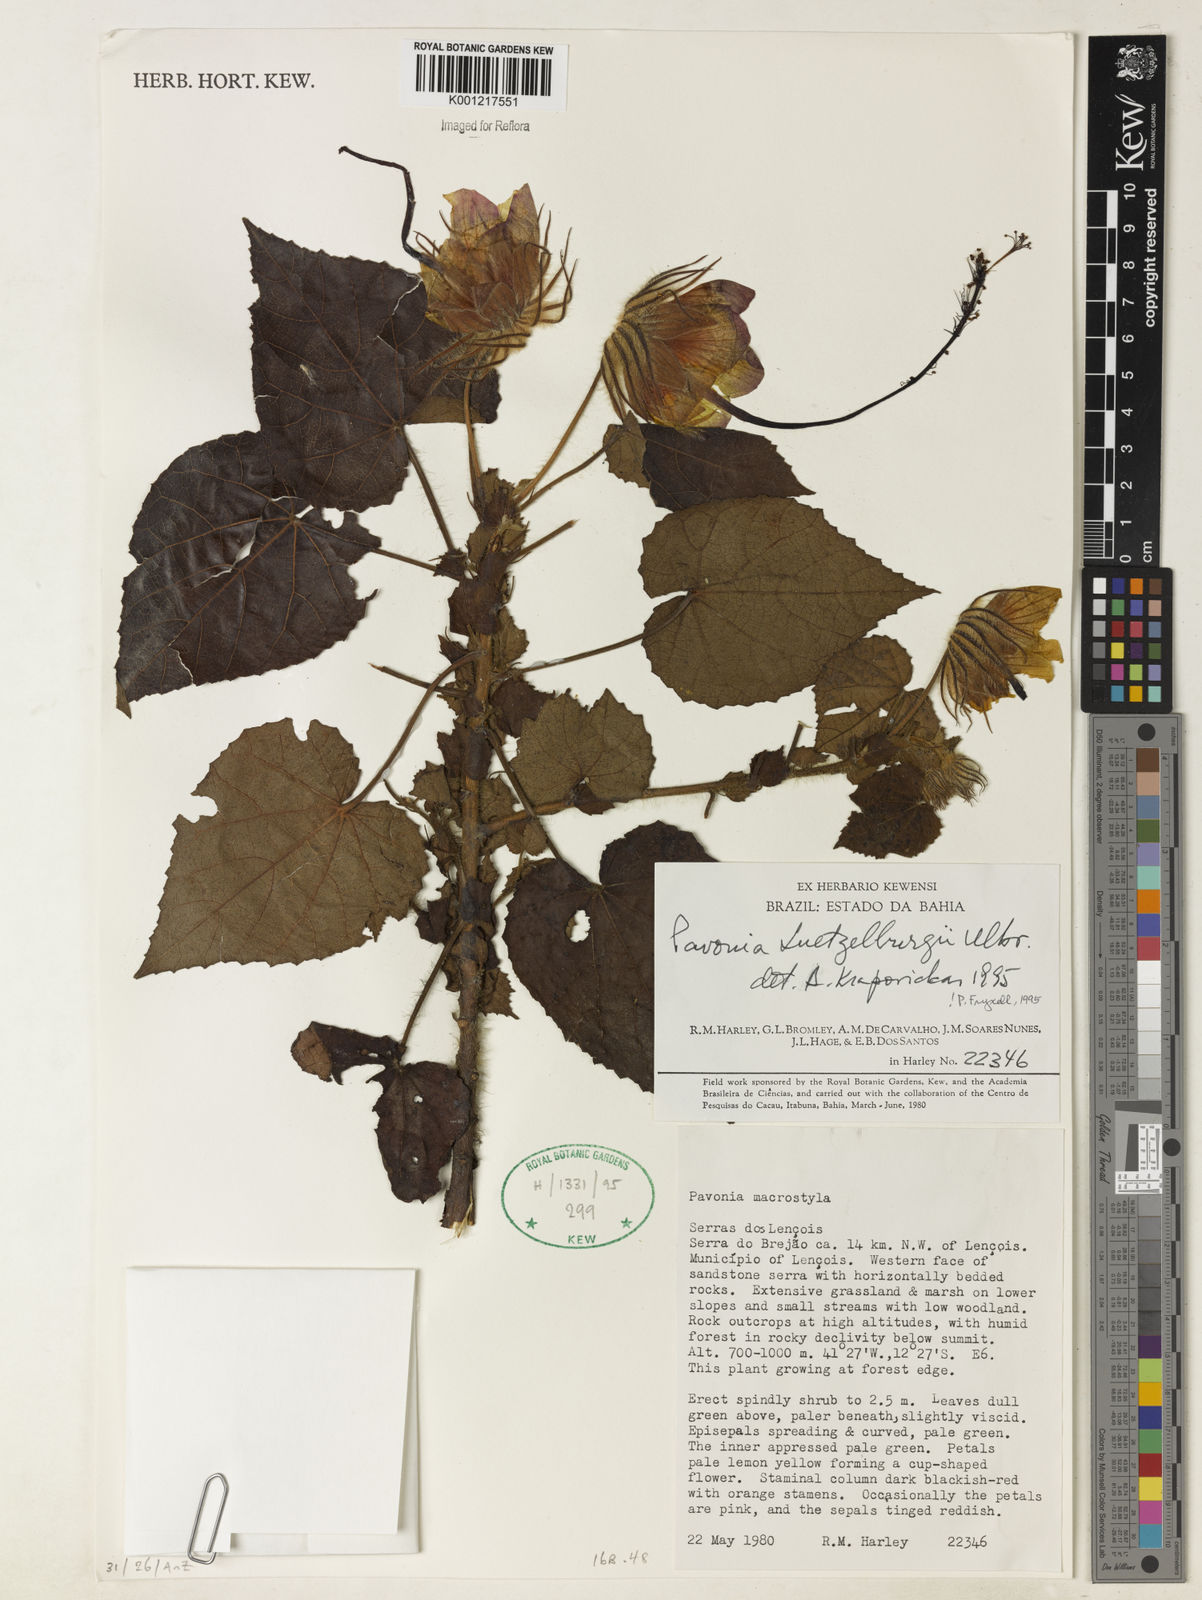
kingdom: Plantae
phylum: Tracheophyta
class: Magnoliopsida
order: Malvales
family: Malvaceae
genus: Pavonia
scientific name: Pavonia luetzelburgii
